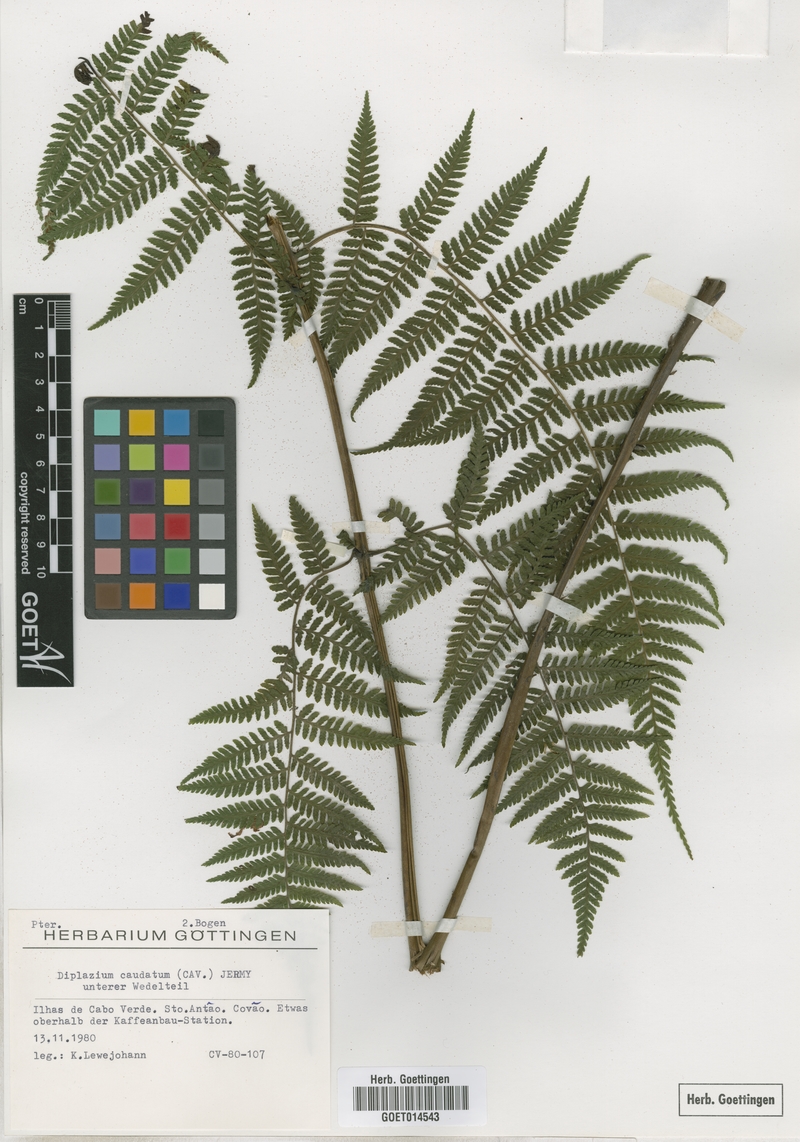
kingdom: Plantae
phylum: Tracheophyta
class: Polypodiopsida
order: Polypodiales
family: Athyriaceae
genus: Diplazium
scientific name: Diplazium caudatum
